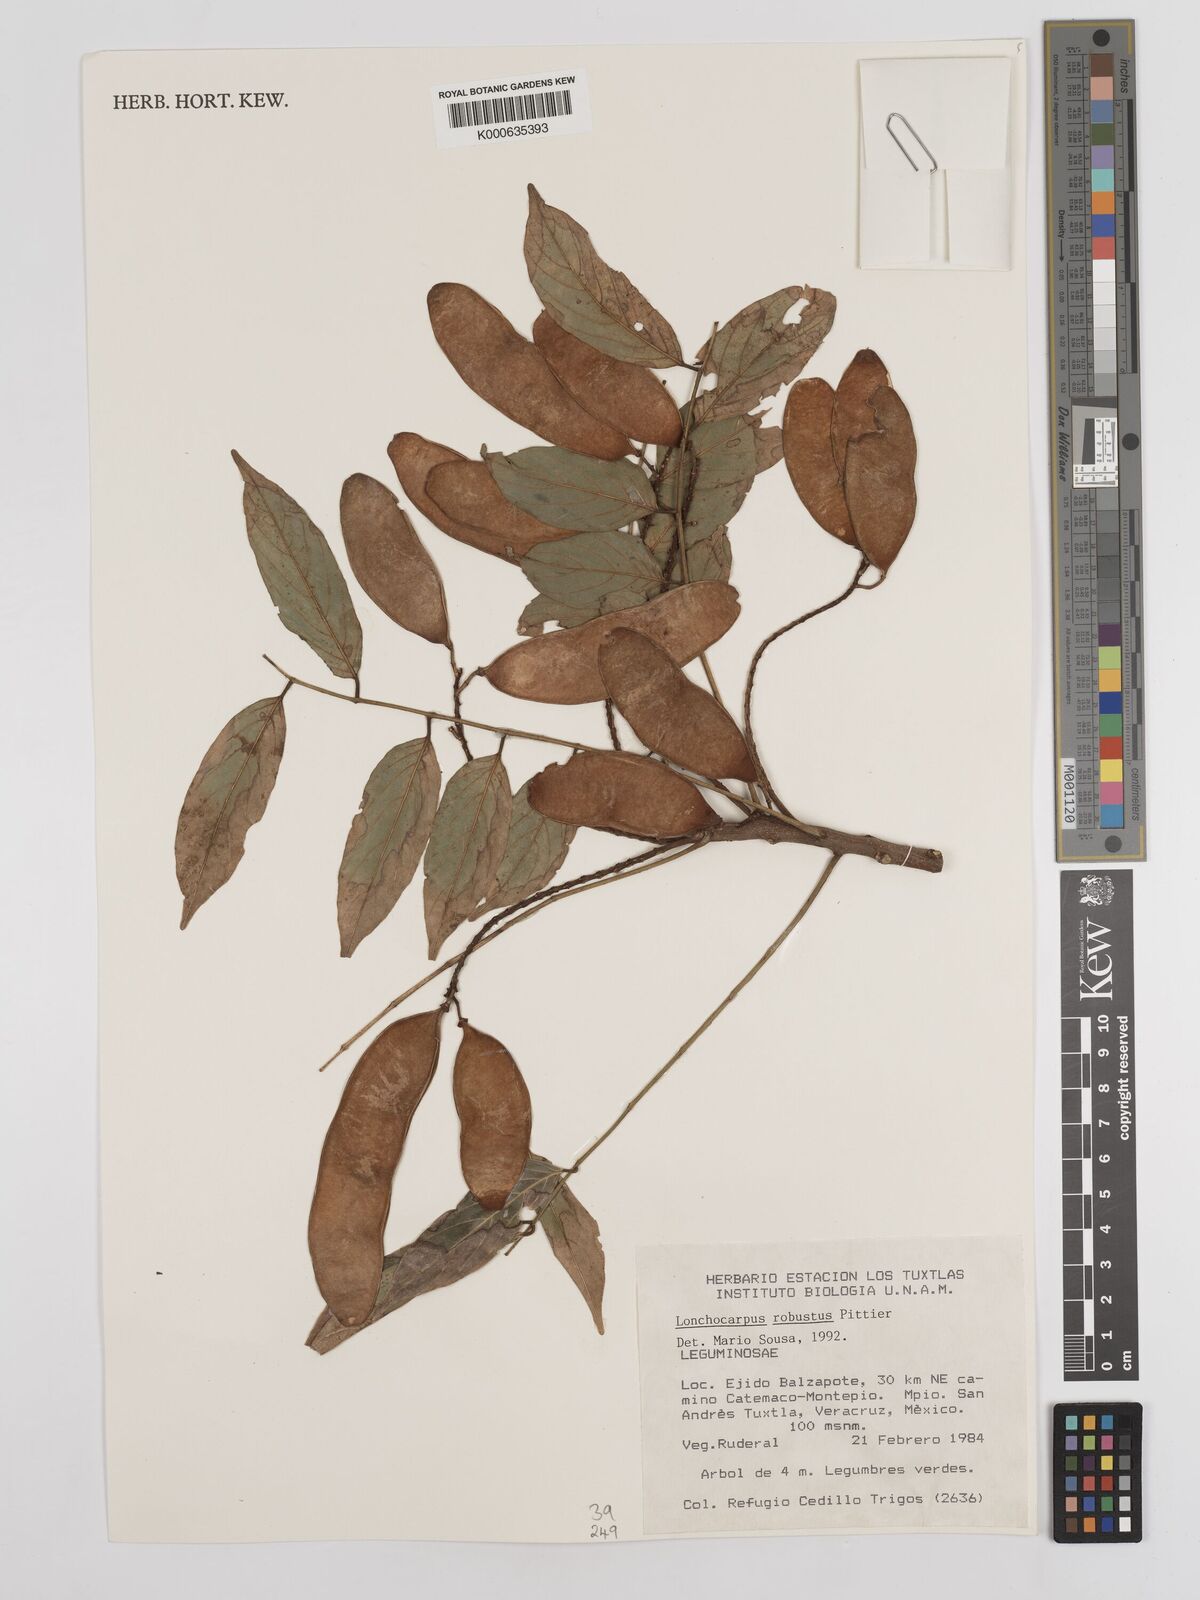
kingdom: Plantae
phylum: Tracheophyta
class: Magnoliopsida
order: Fabales
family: Fabaceae
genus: Lonchocarpus
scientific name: Lonchocarpus robustus
